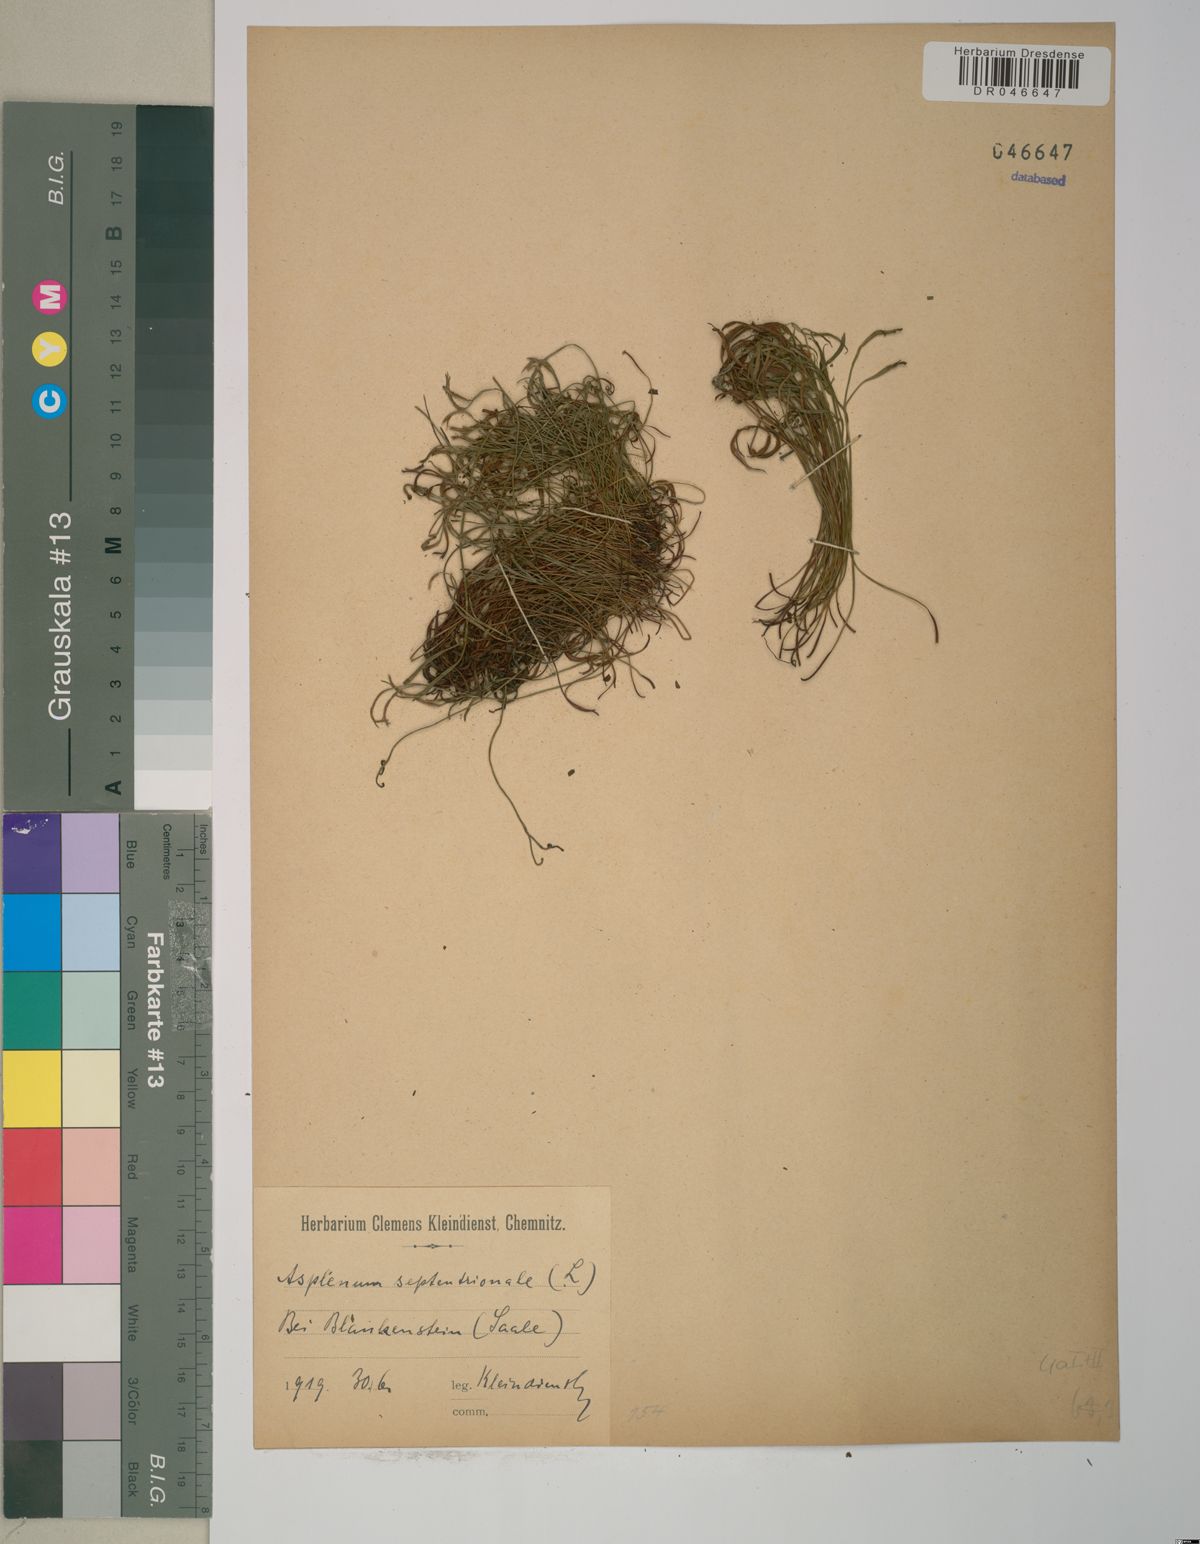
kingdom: Plantae
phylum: Tracheophyta
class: Polypodiopsida
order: Polypodiales
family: Aspleniaceae
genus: Asplenium
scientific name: Asplenium septentrionale
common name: Forked spleenwort
